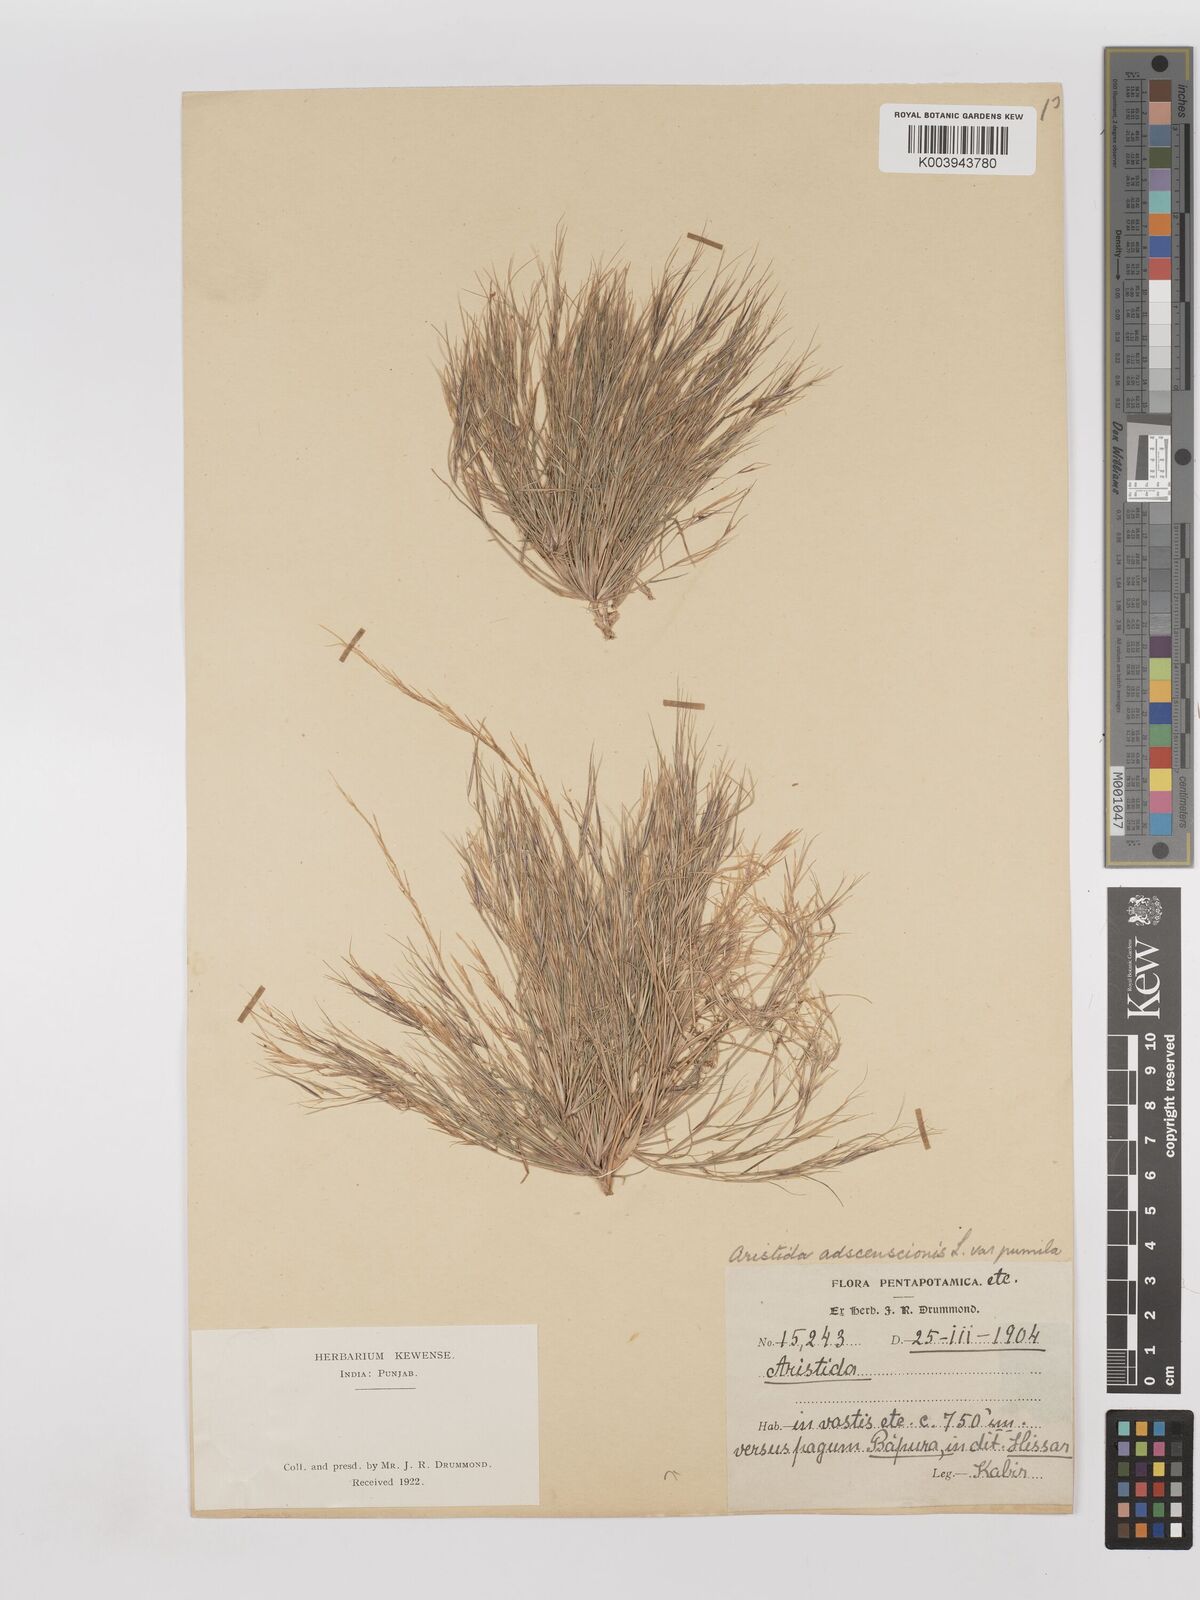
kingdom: Plantae
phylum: Tracheophyta
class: Liliopsida
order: Poales
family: Poaceae
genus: Aristida
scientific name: Aristida adscensionis
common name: Sixweeks threeawn
